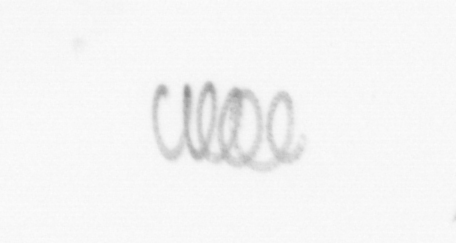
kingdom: Chromista
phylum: Ochrophyta
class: Bacillariophyceae
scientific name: Bacillariophyceae
